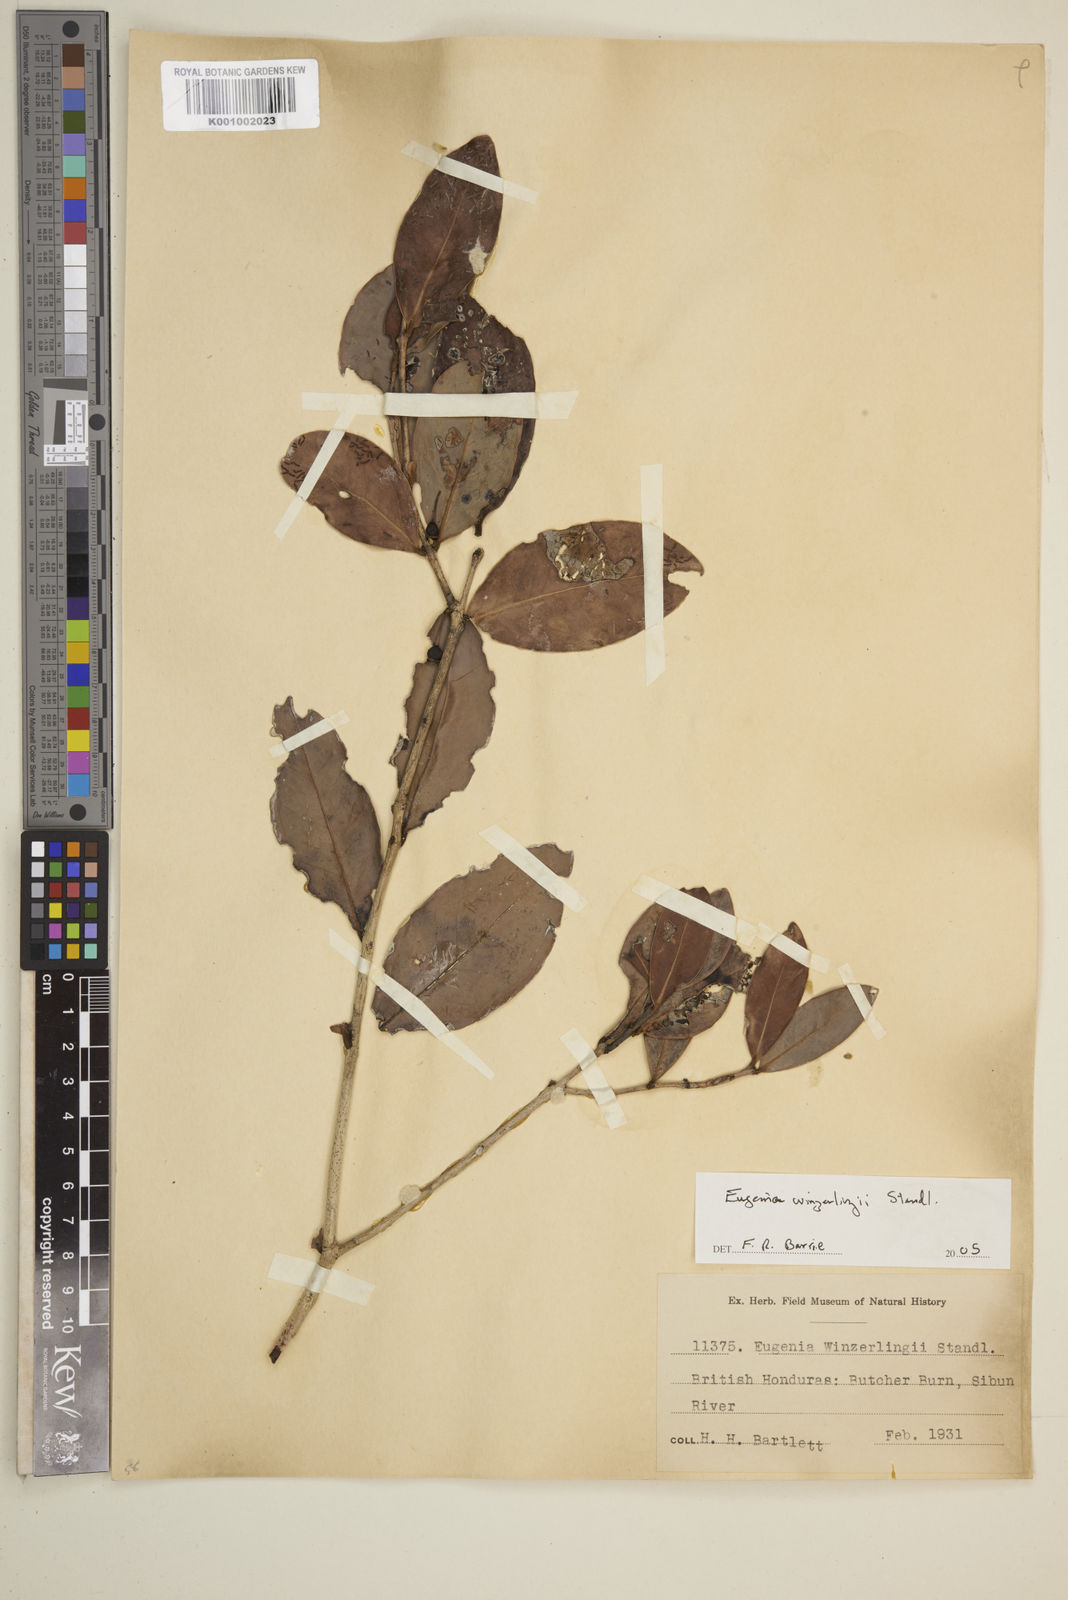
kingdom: Plantae
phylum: Tracheophyta
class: Magnoliopsida
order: Myrtales
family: Myrtaceae
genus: Eugenia
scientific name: Eugenia winzerlingii
